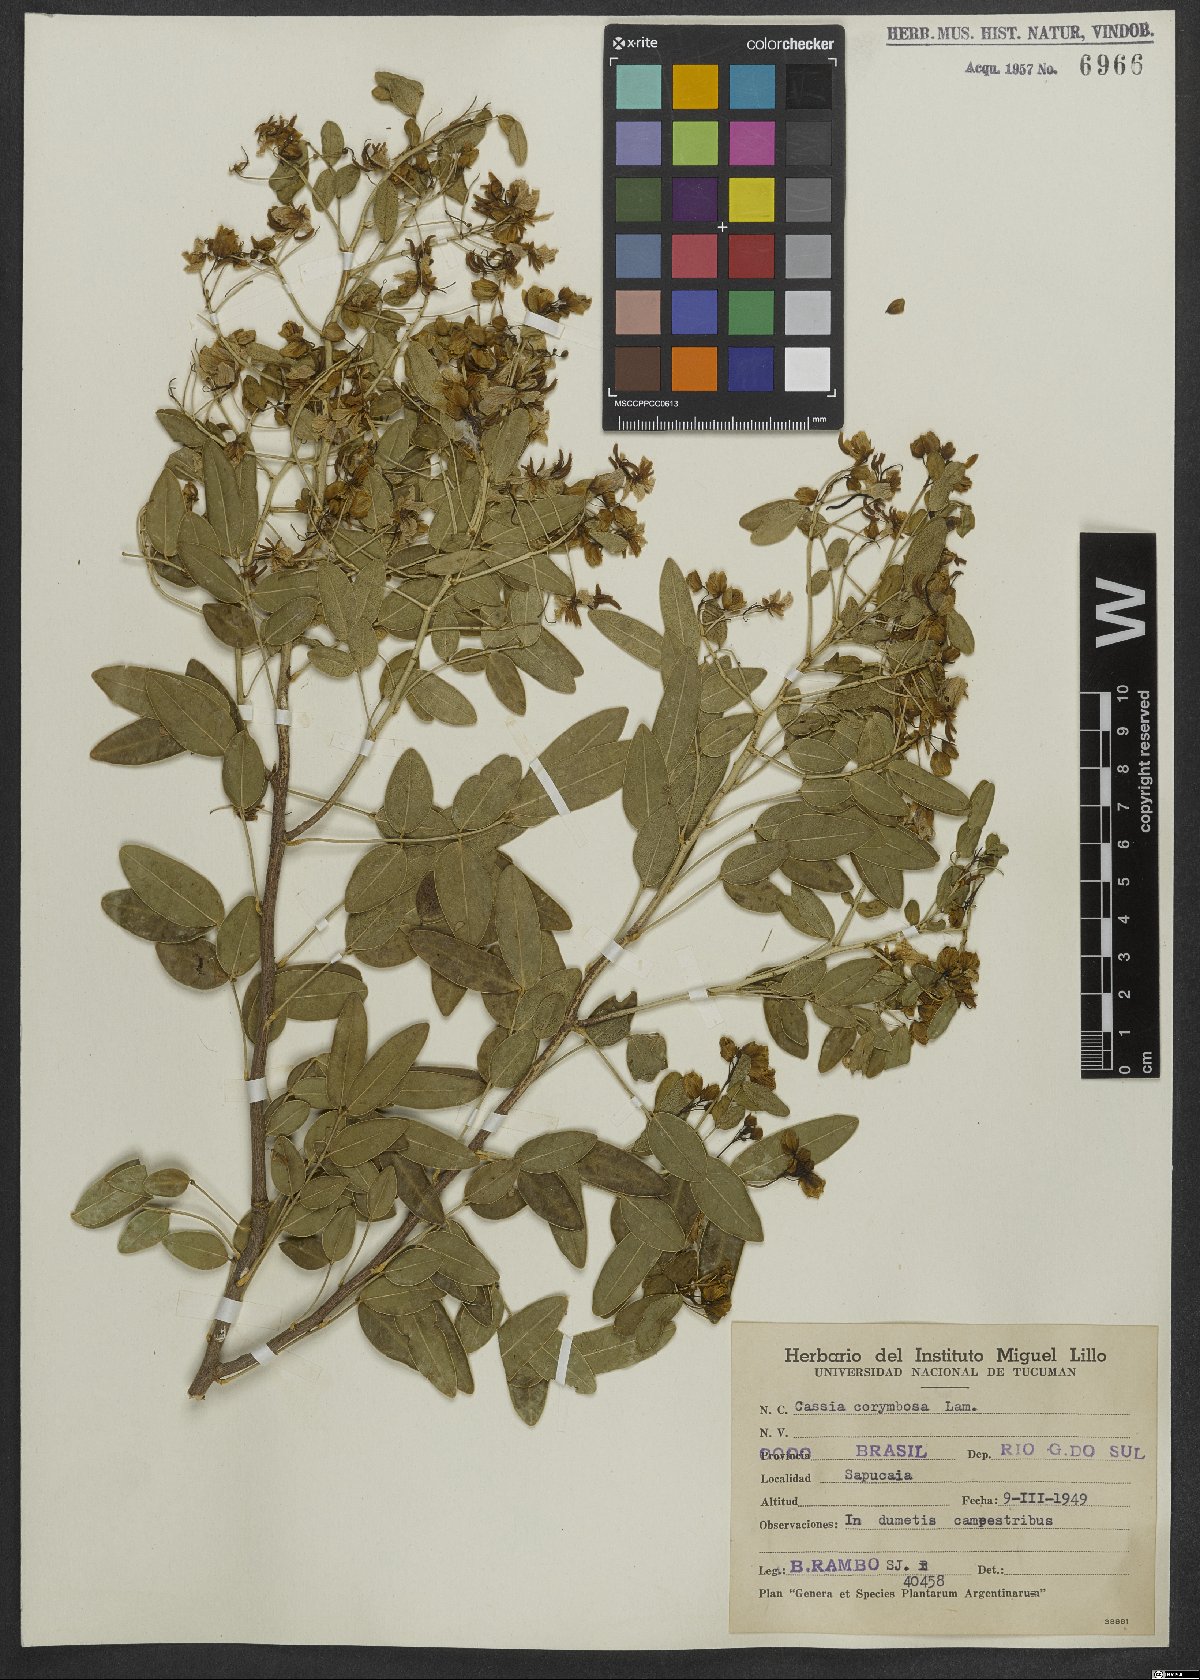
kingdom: Plantae
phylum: Tracheophyta
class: Magnoliopsida
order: Fabales
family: Fabaceae
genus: Senna
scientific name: Senna corymbosa
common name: Argentine senna
